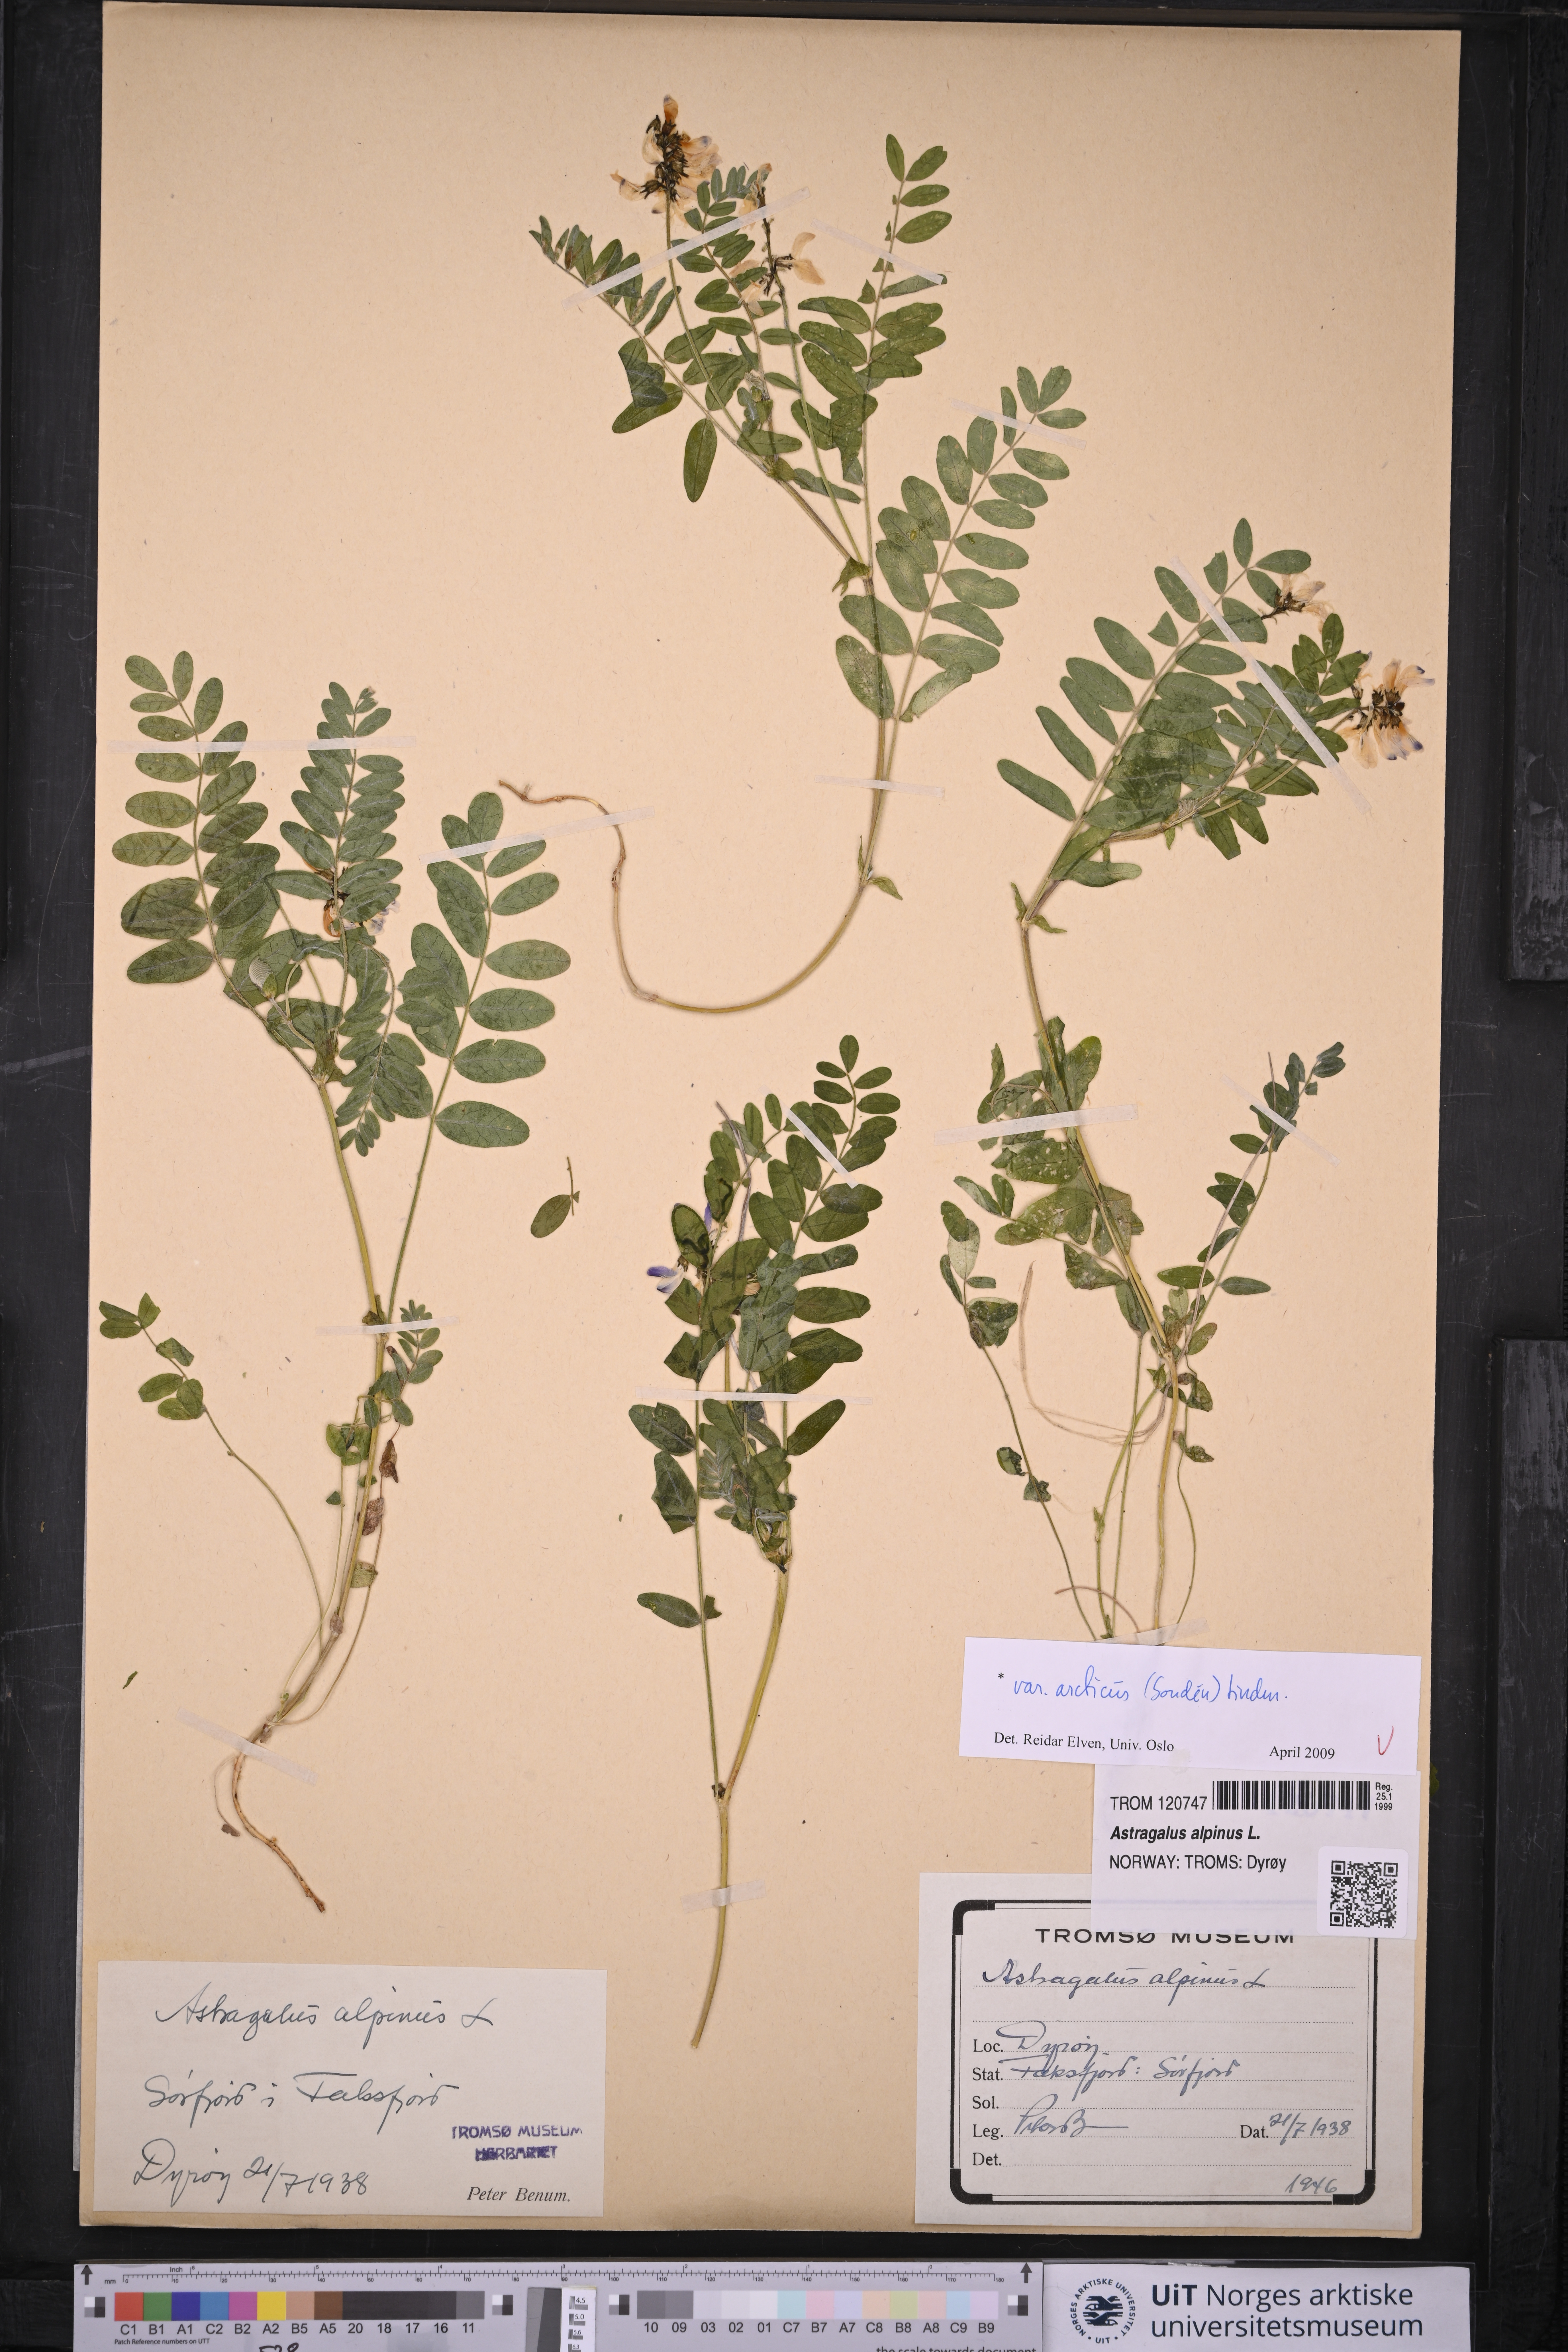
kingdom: Plantae
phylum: Tracheophyta
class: Magnoliopsida
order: Fabales
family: Fabaceae
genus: Astragalus
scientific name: Astragalus norvegicus
